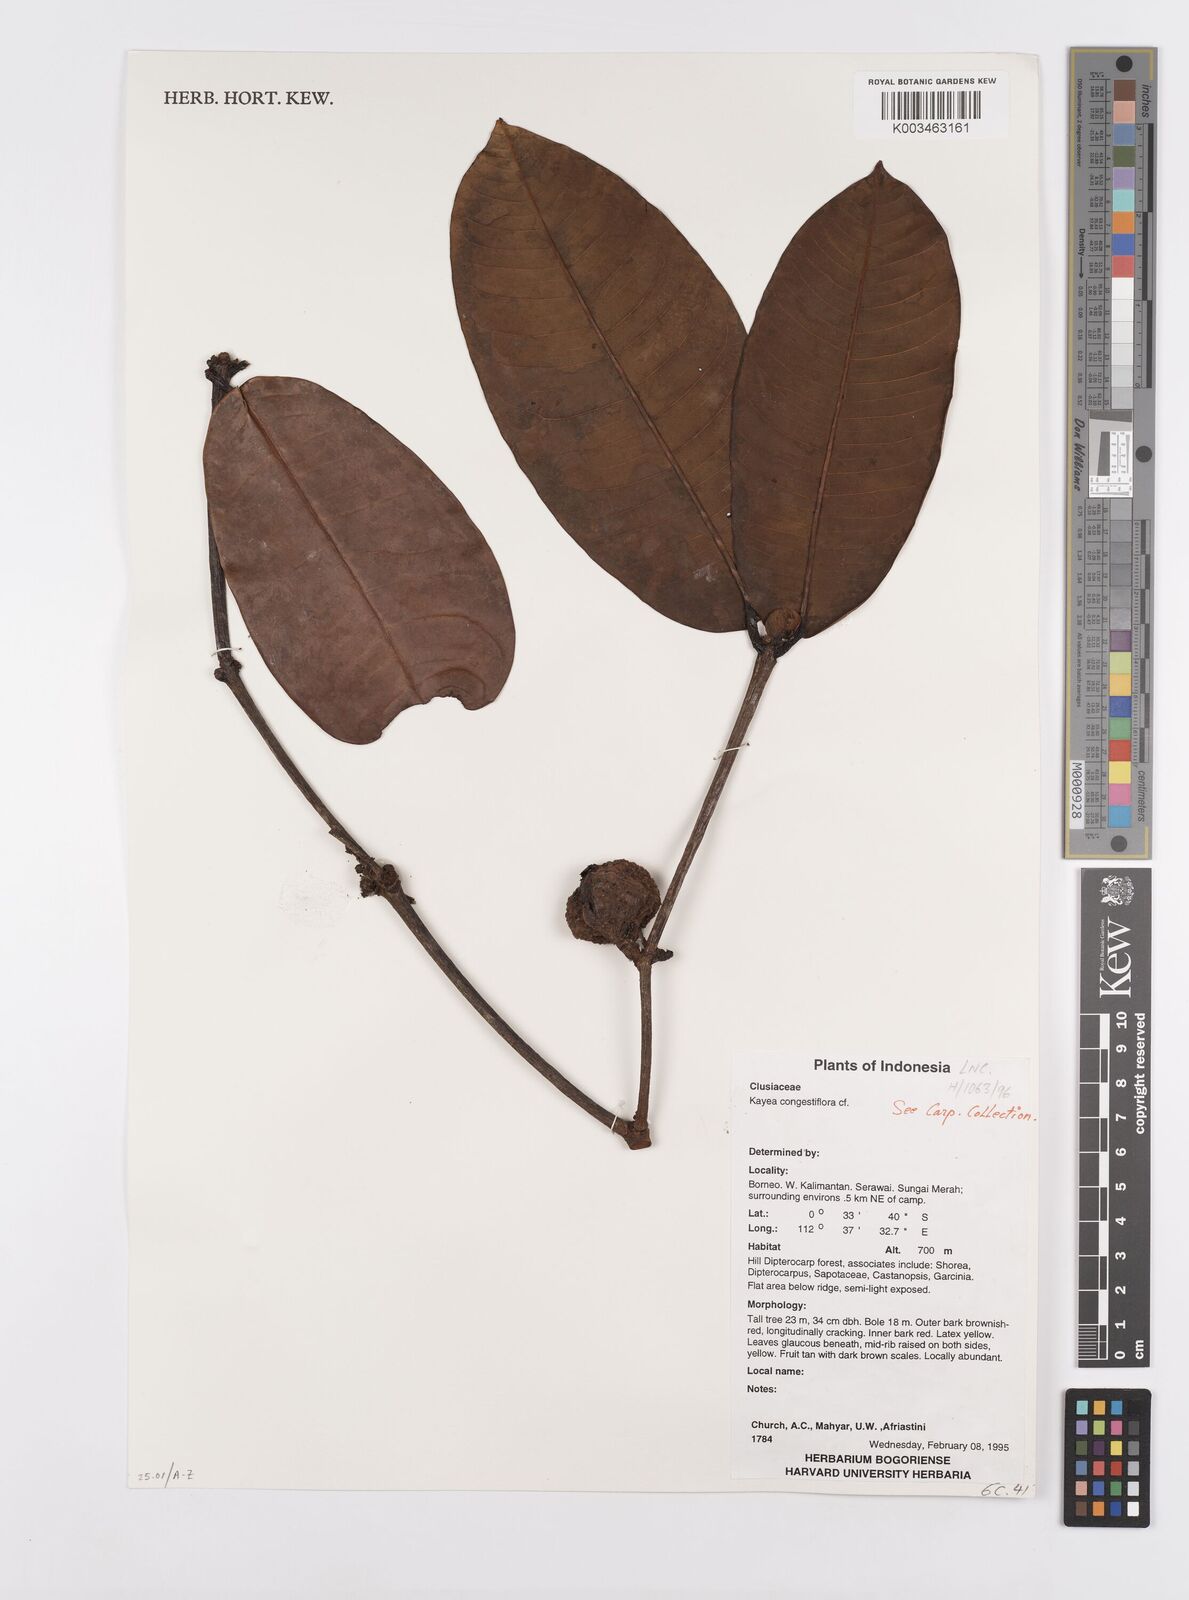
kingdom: Plantae
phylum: Tracheophyta
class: Magnoliopsida
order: Malpighiales
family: Calophyllaceae
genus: Kayea
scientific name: Kayea
